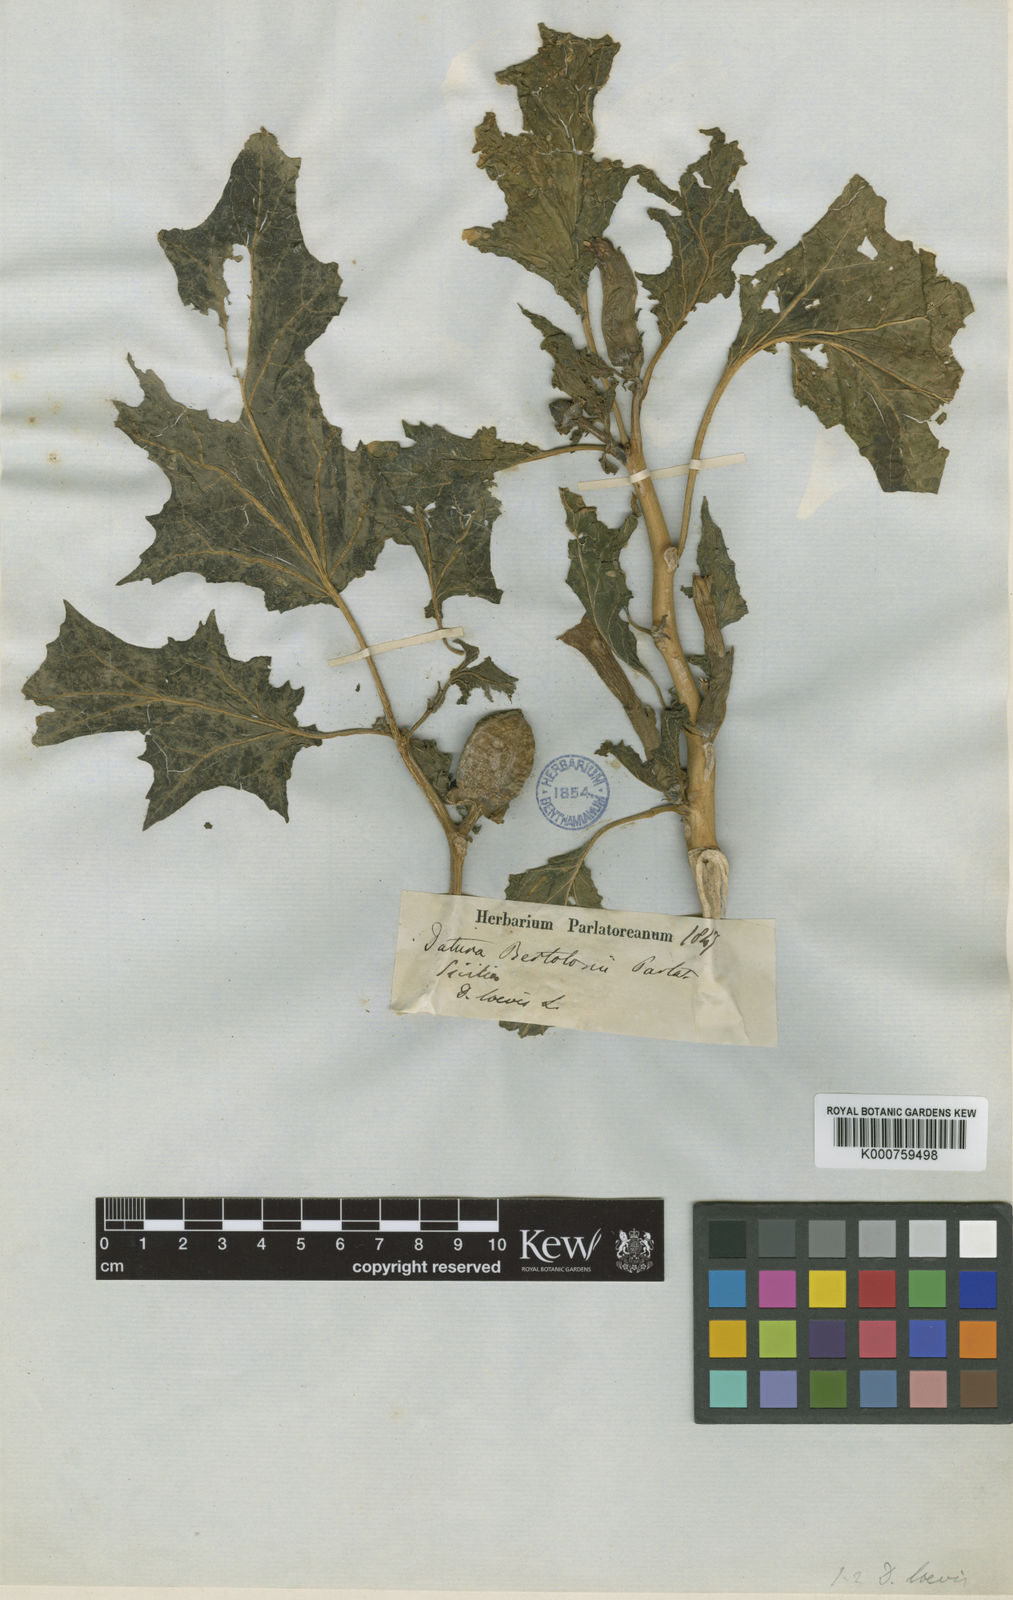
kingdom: Plantae
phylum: Tracheophyta
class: Magnoliopsida
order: Solanales
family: Solanaceae
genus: Datura
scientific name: Datura stramonium
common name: Thorn-apple
